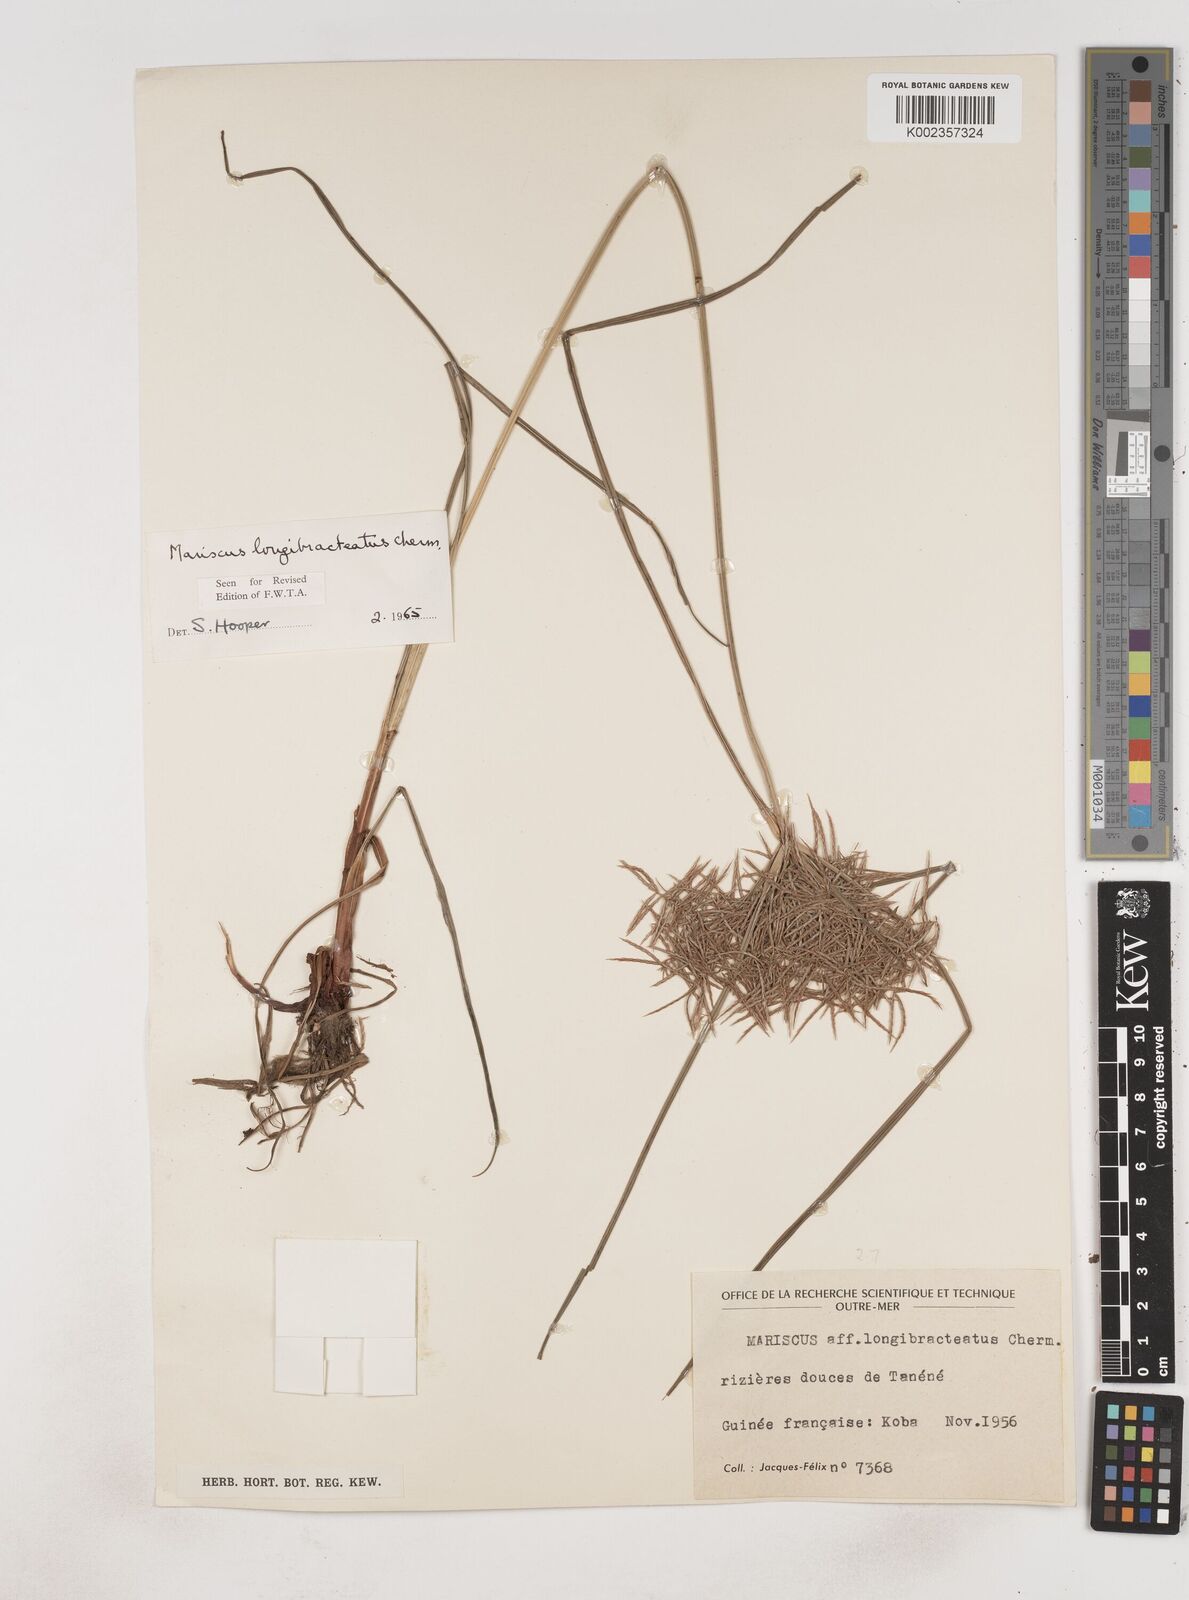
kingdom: Plantae
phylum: Tracheophyta
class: Liliopsida
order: Poales
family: Cyperaceae
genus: Cyperus
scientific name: Cyperus distans
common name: Slender cyperus
